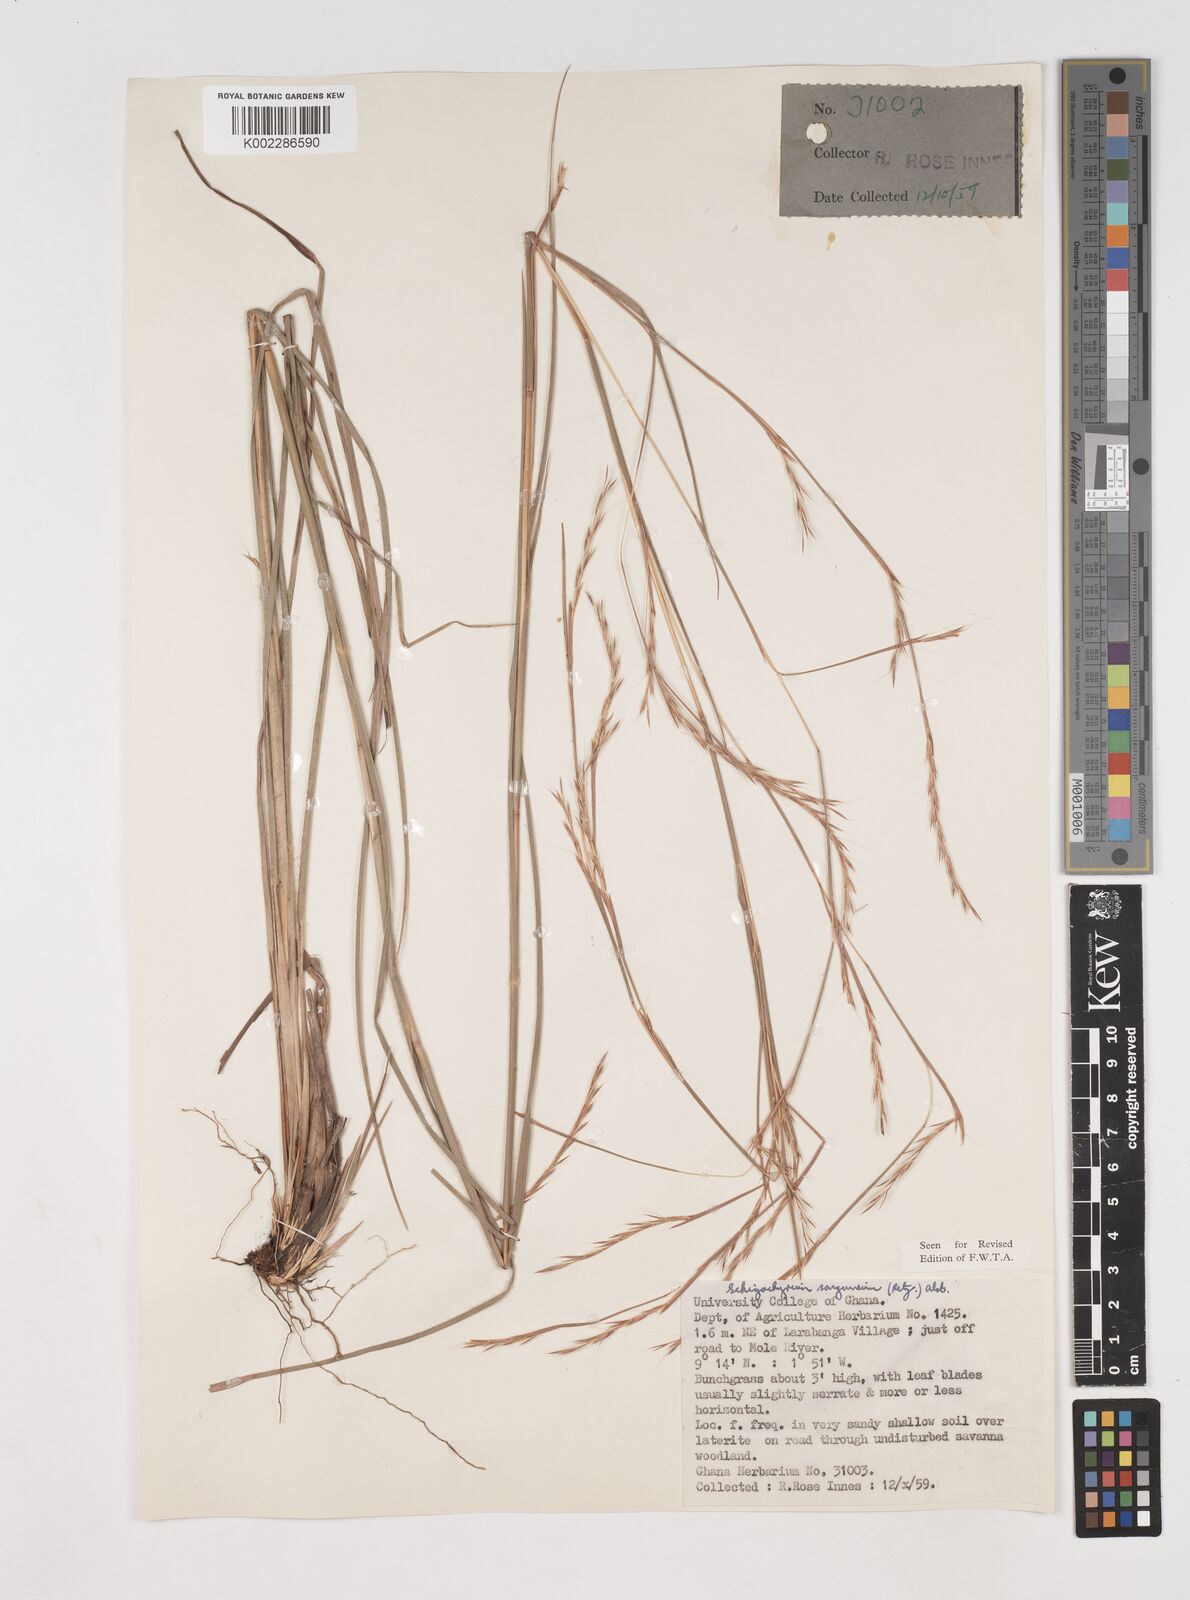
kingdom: Plantae
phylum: Tracheophyta
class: Liliopsida
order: Poales
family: Poaceae
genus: Schizachyrium
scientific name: Schizachyrium sanguineum
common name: Crimson bluestem
